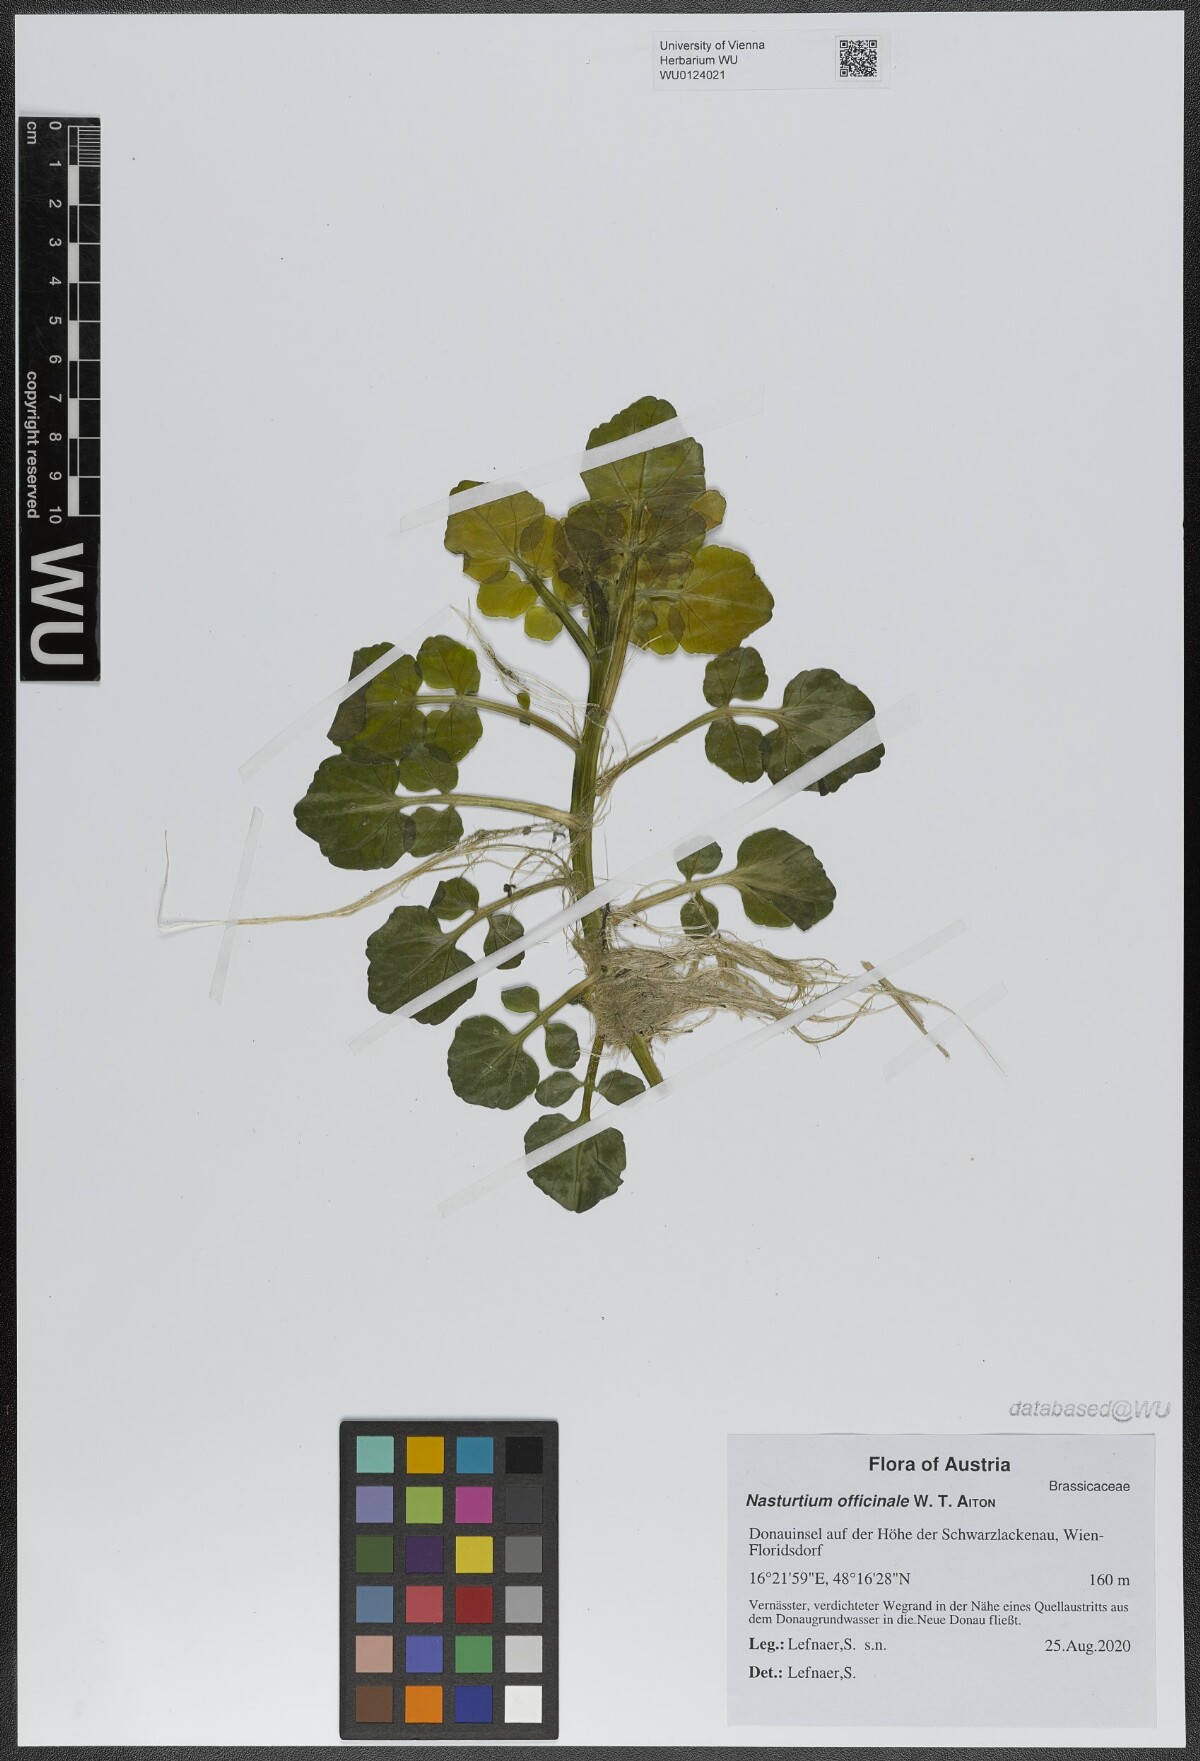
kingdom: Plantae
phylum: Tracheophyta
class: Magnoliopsida
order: Brassicales
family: Brassicaceae
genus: Nasturtium
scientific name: Nasturtium officinale
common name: Watercress
